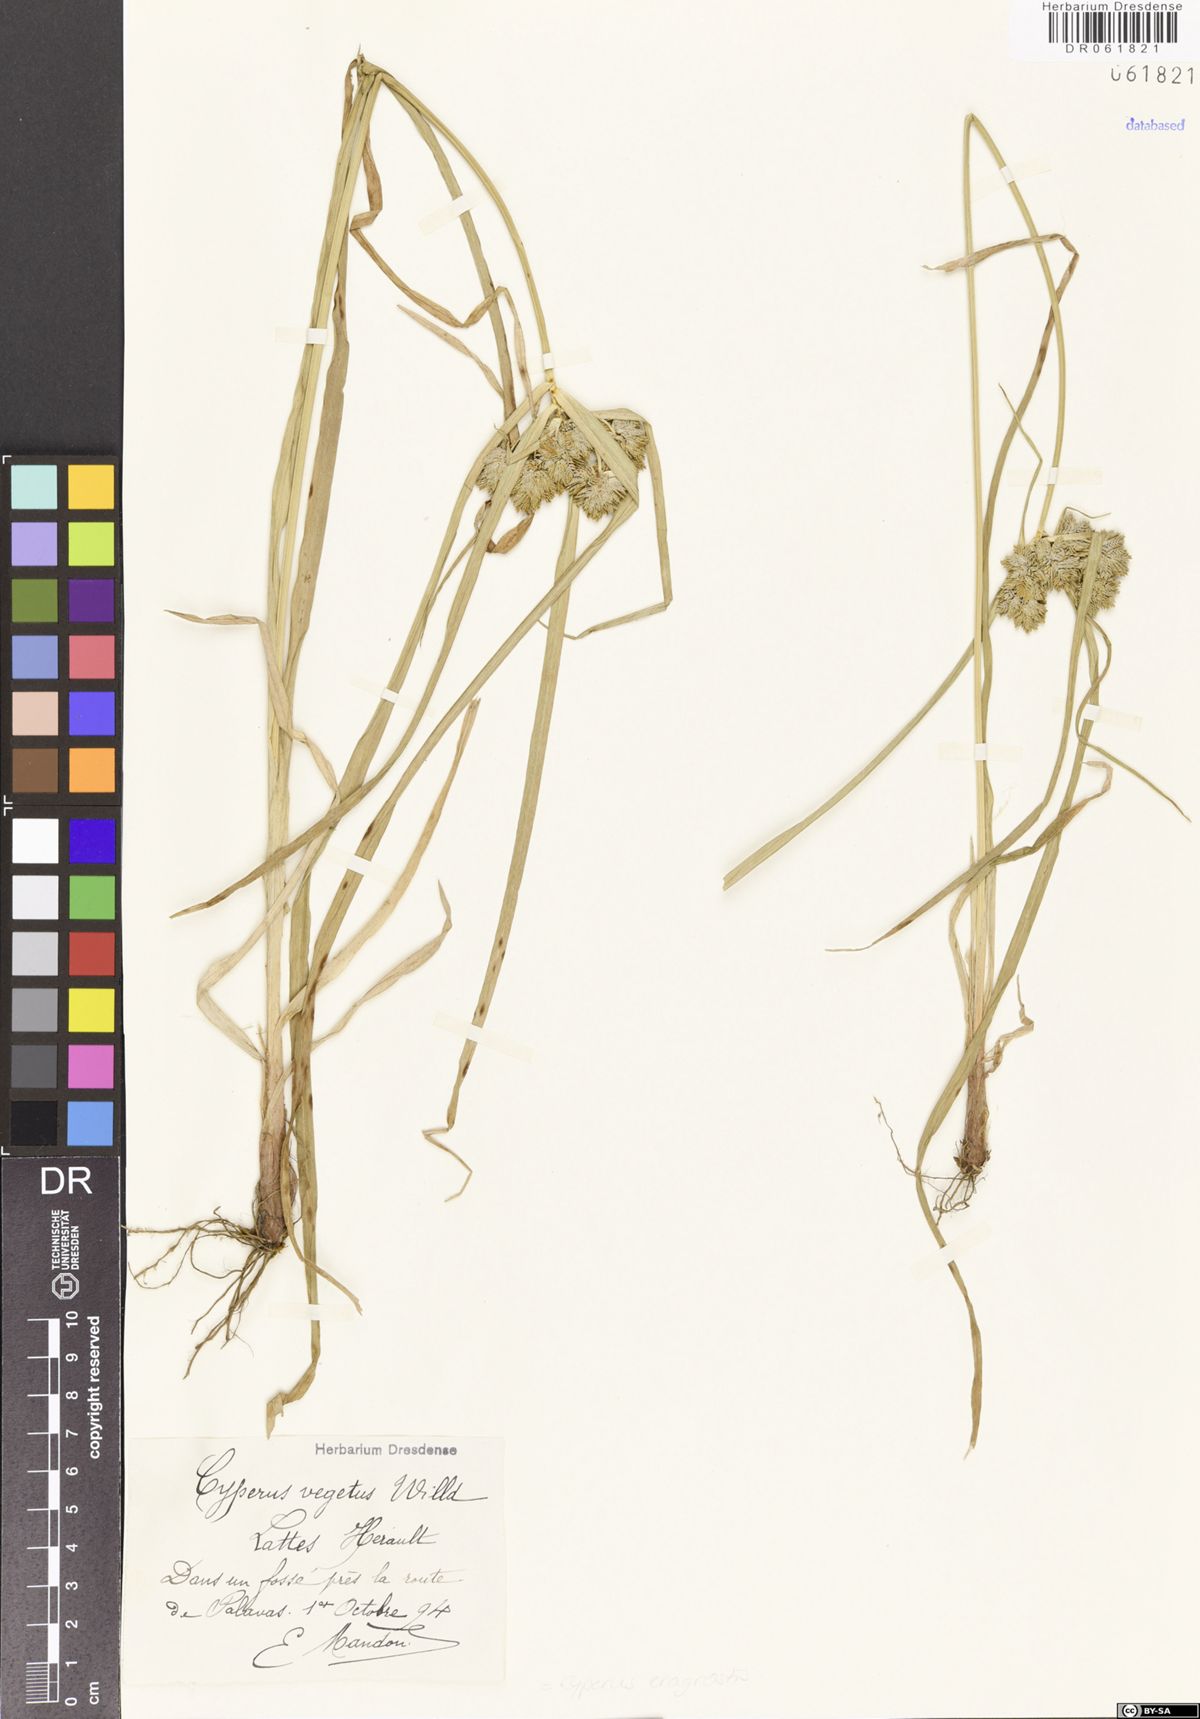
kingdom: Plantae
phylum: Tracheophyta
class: Liliopsida
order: Poales
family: Cyperaceae
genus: Cyperus
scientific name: Cyperus eragrostis
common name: Tall flatsedge
